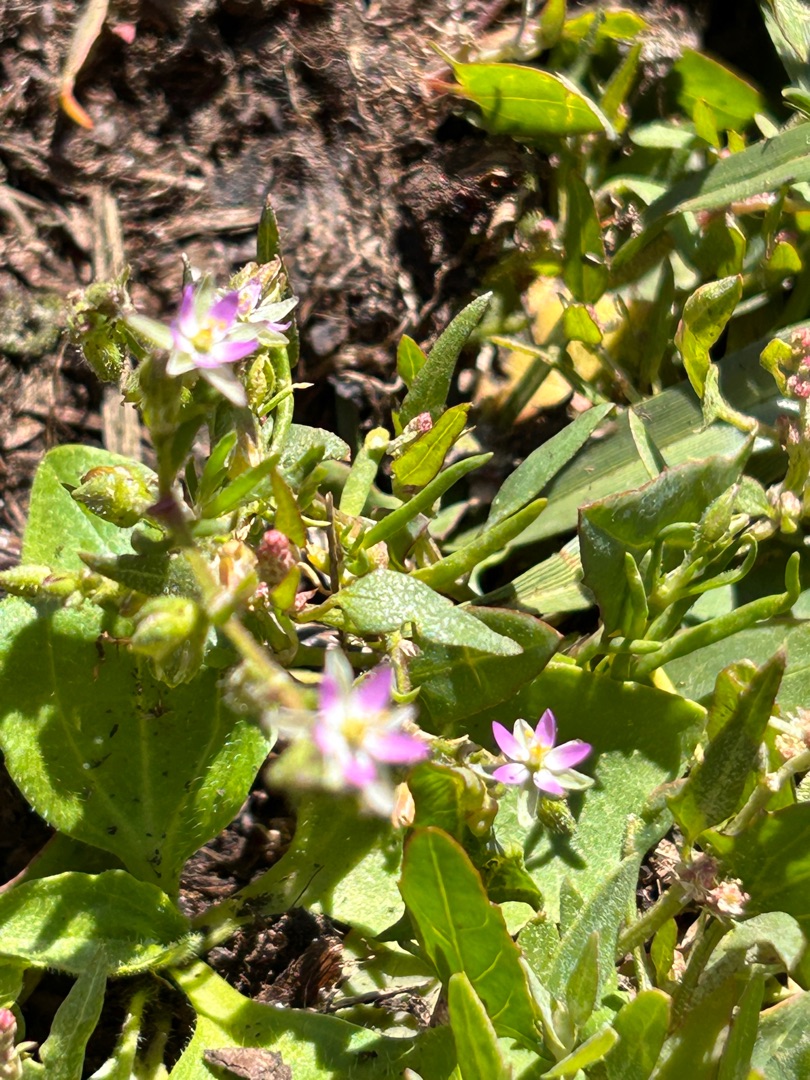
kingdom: Plantae
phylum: Tracheophyta
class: Magnoliopsida
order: Caryophyllales
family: Caryophyllaceae
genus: Spergularia
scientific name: Spergularia marina
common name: Kødet hindeknæ
